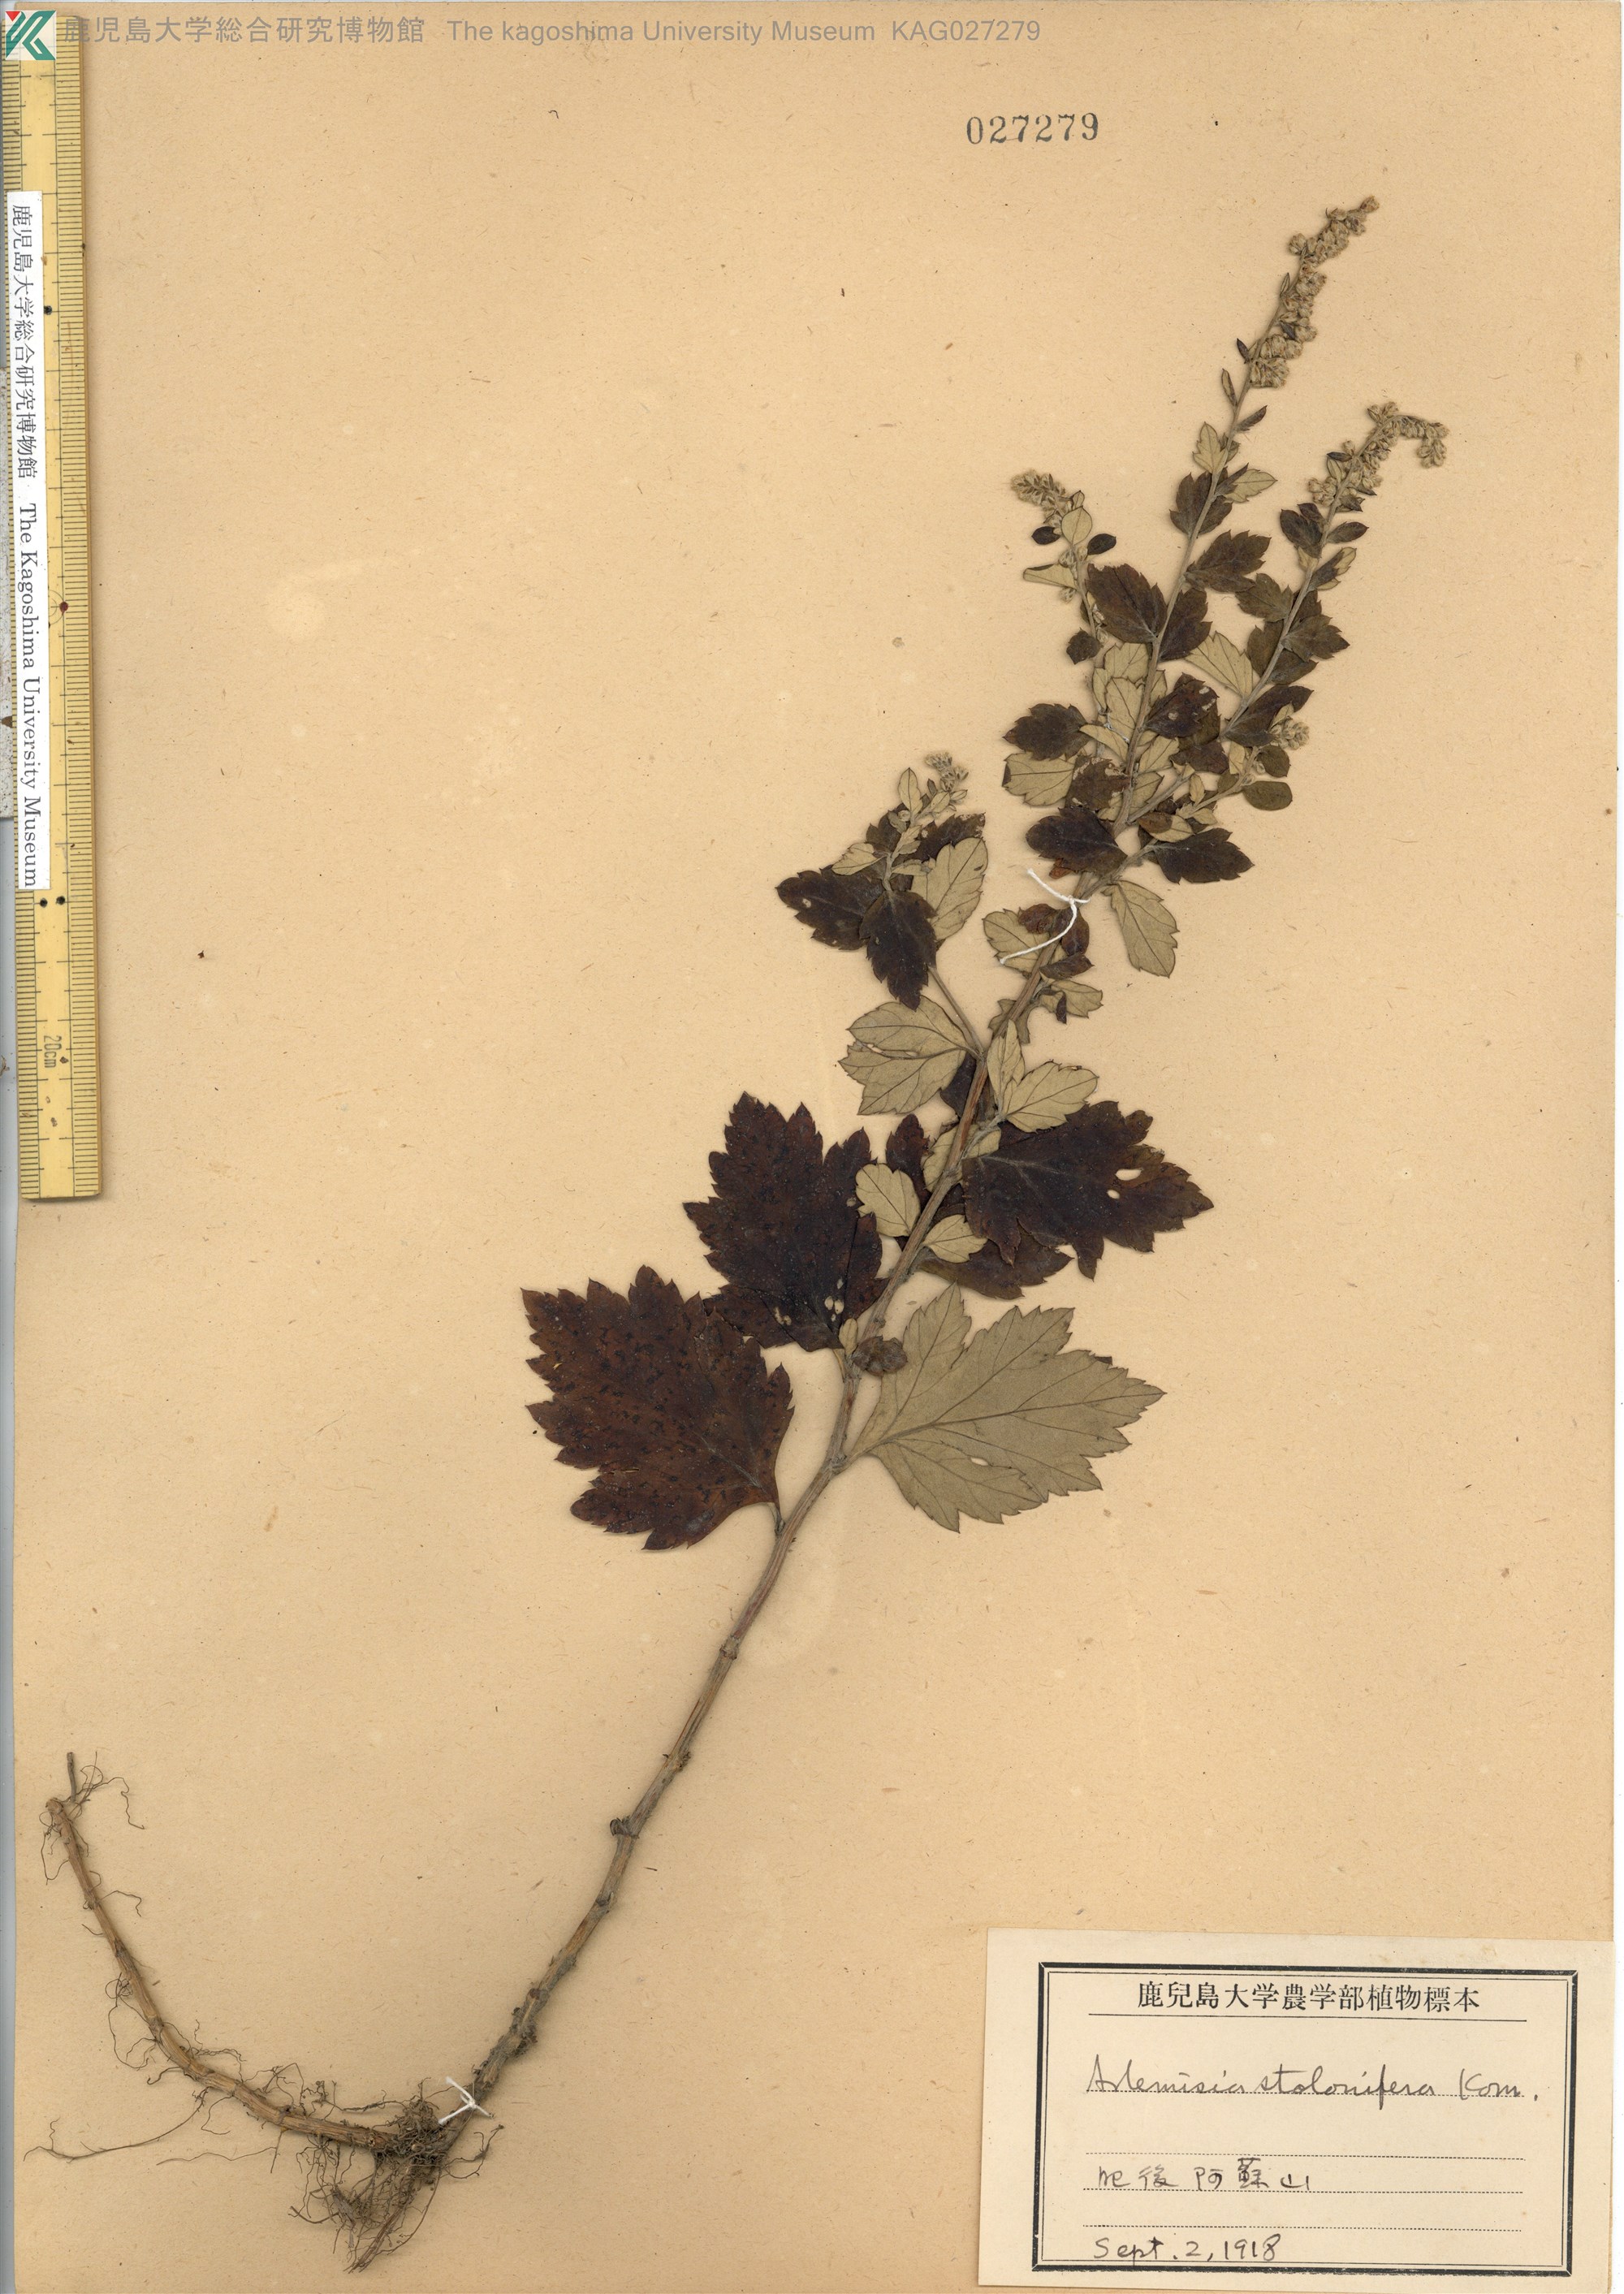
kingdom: Plantae
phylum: Tracheophyta
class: Magnoliopsida
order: Asterales
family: Asteraceae
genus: Artemisia
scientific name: Artemisia stolonifera
